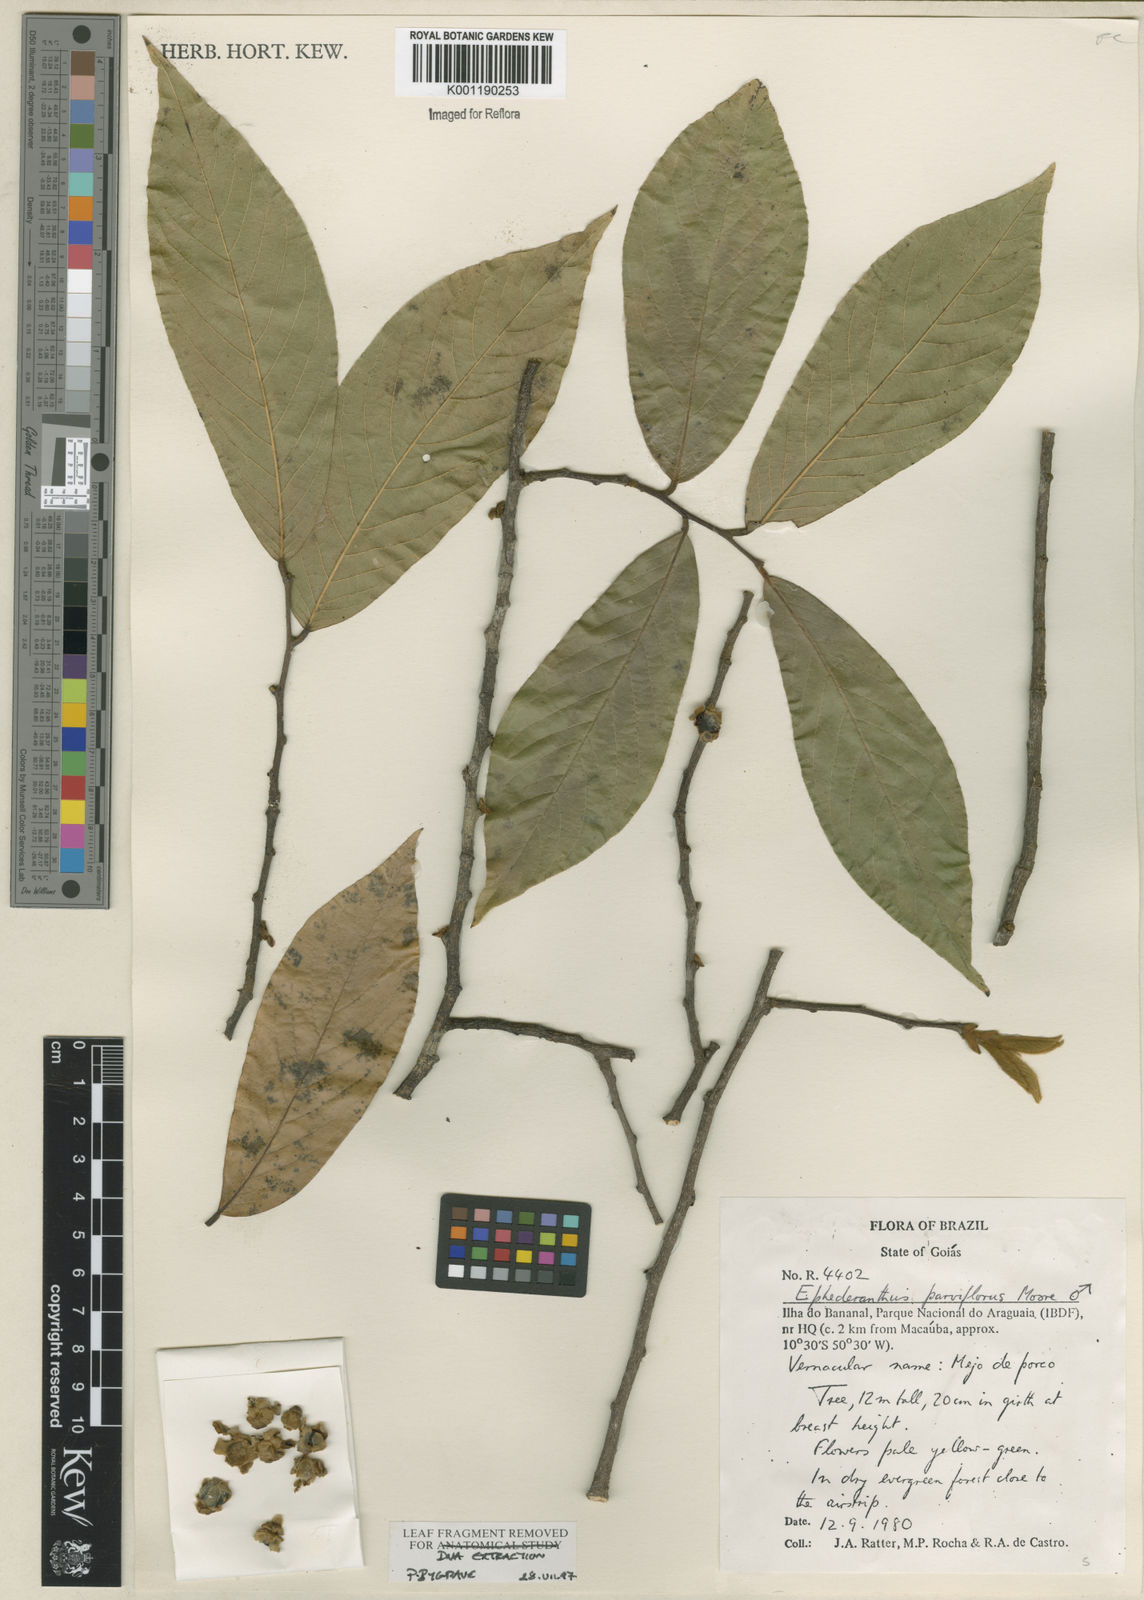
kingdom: Plantae
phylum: Tracheophyta
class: Magnoliopsida
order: Magnoliales
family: Annonaceae
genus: Ephedranthus
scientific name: Ephedranthus parviflorus
